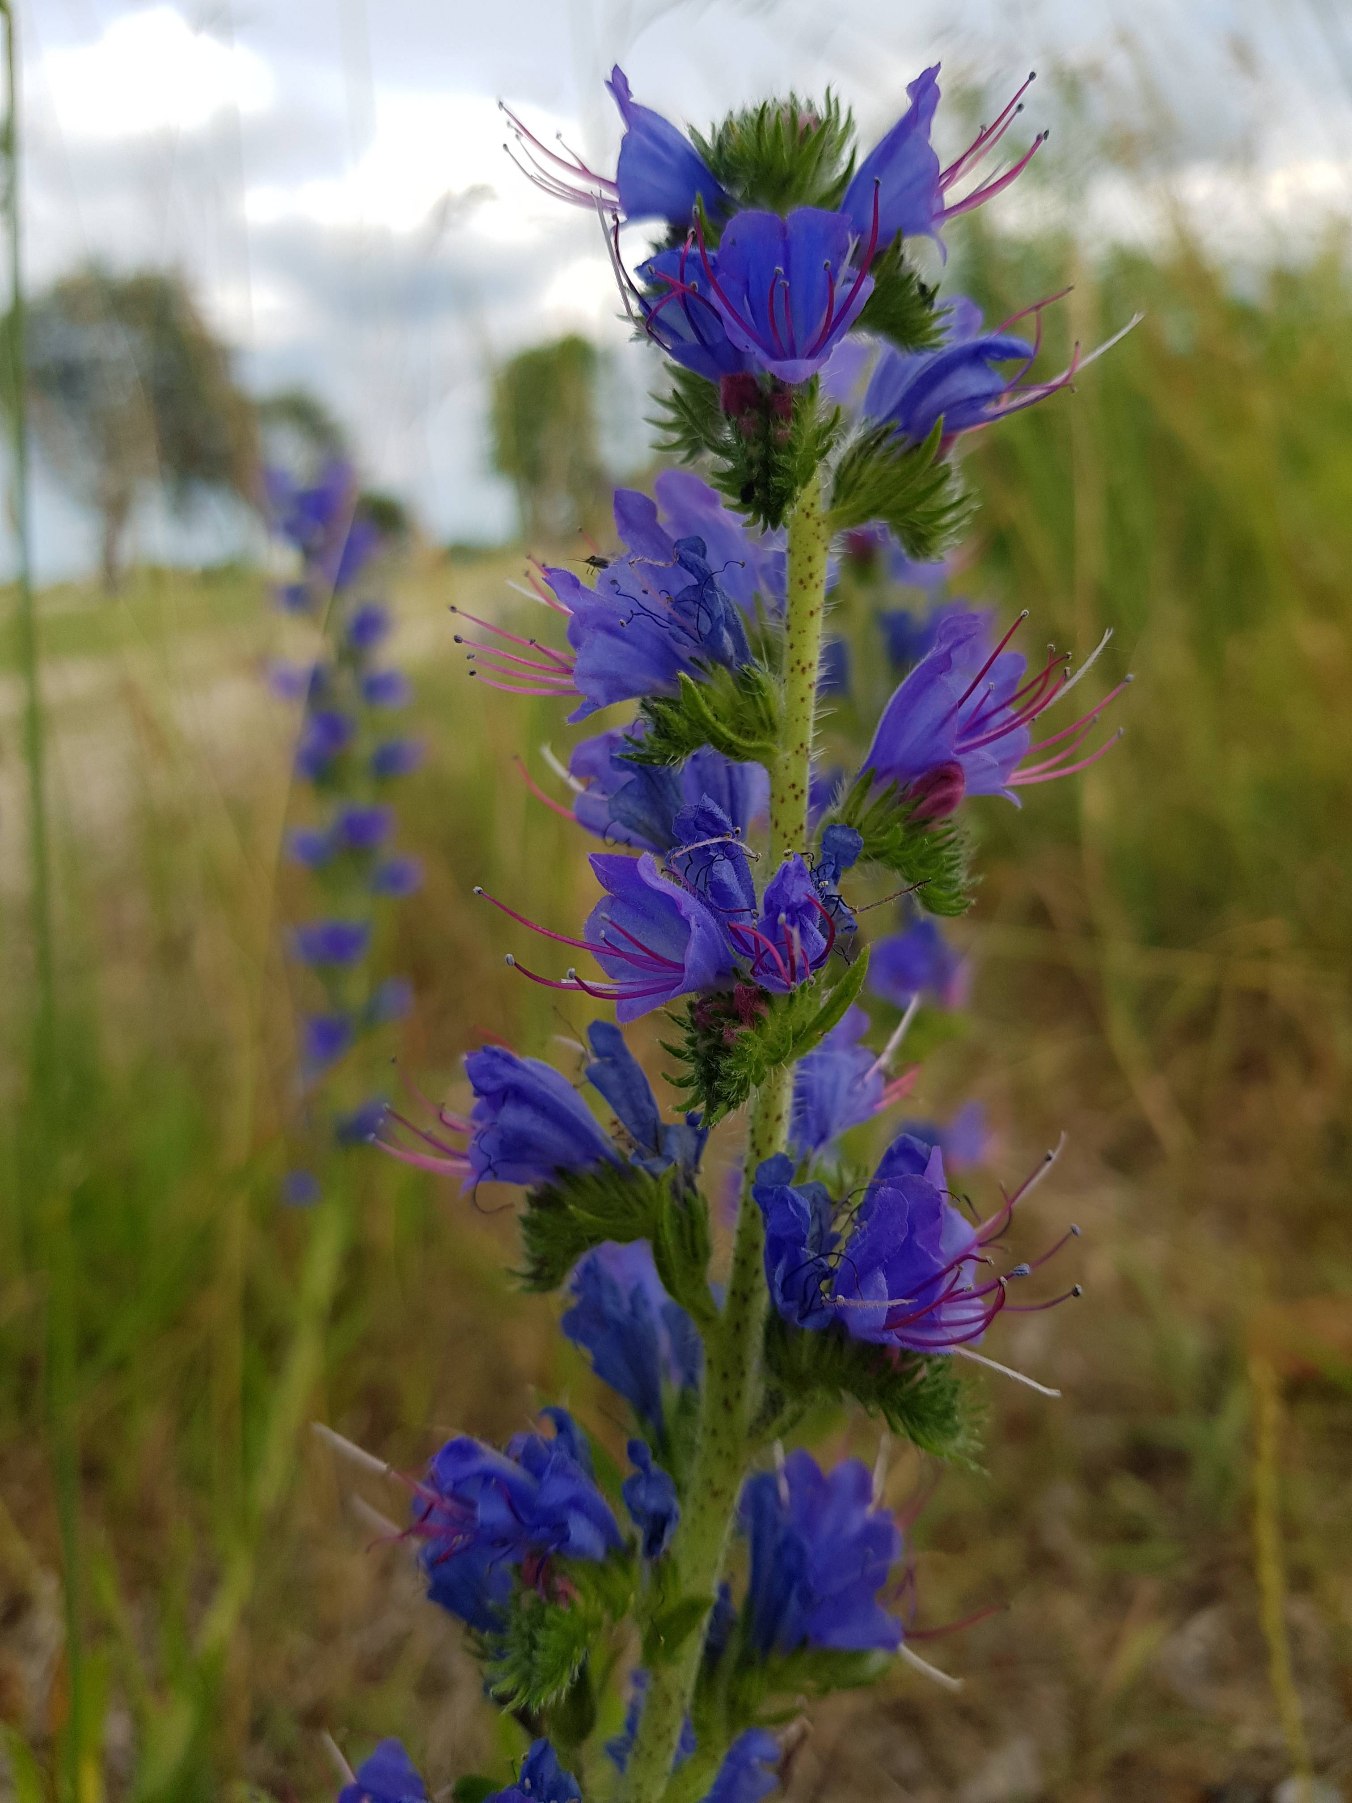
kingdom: Plantae
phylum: Tracheophyta
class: Magnoliopsida
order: Boraginales
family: Boraginaceae
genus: Echium
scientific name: Echium vulgare
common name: Slangehoved
